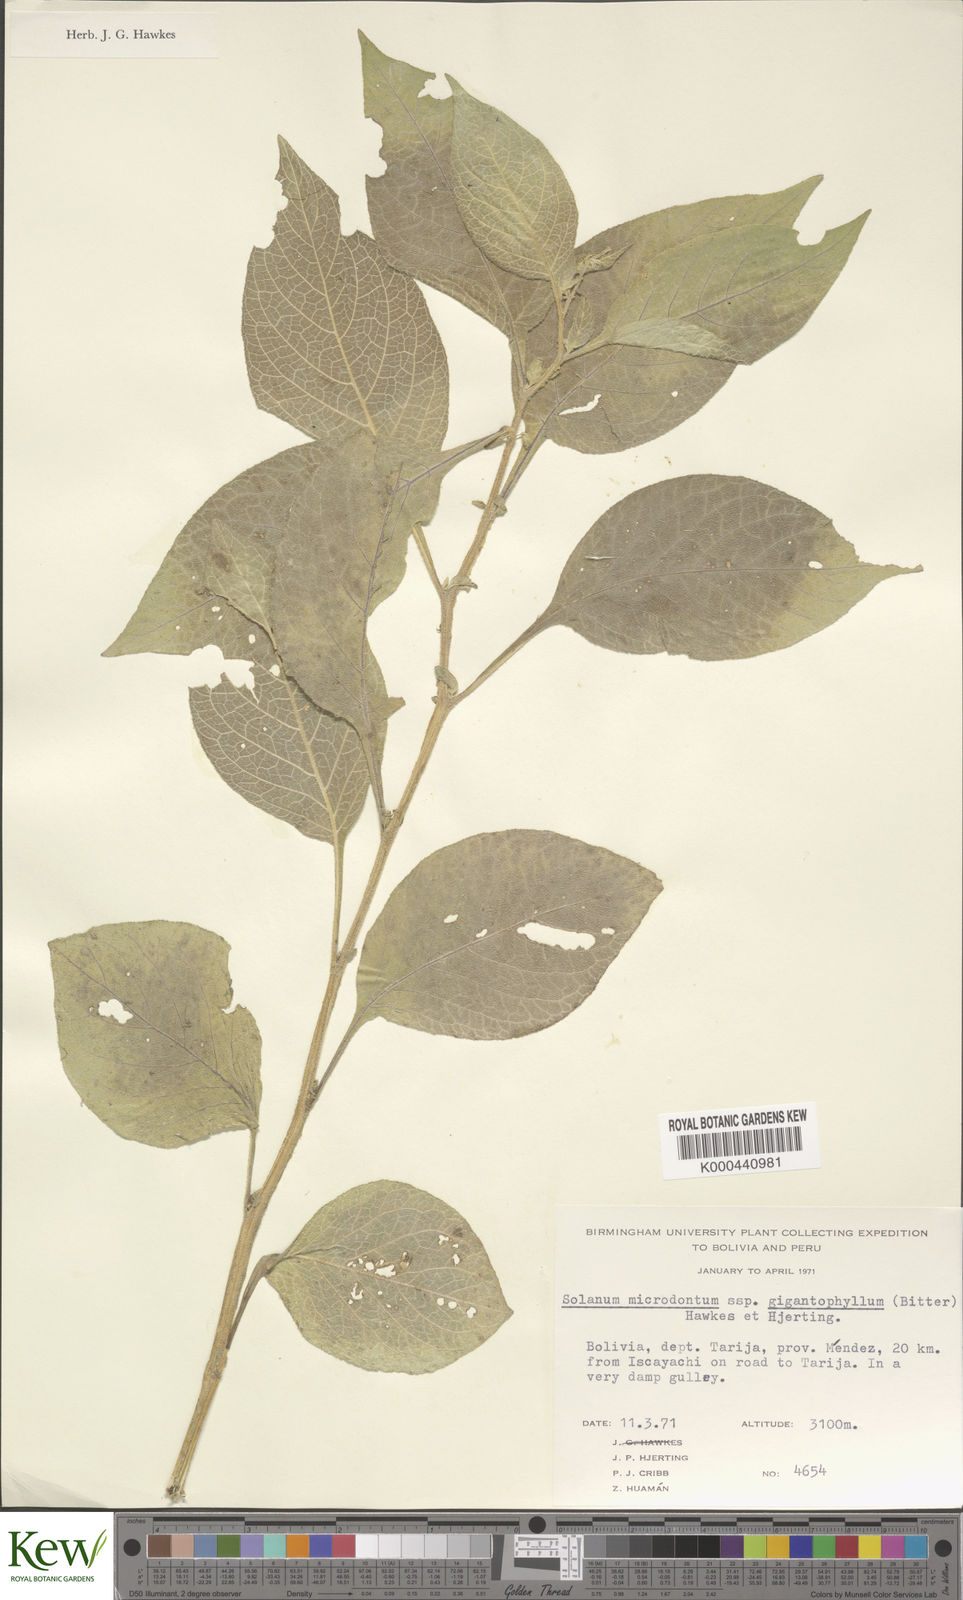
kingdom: Plantae
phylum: Tracheophyta
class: Magnoliopsida
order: Solanales
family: Solanaceae
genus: Solanum
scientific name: Solanum microdontum
